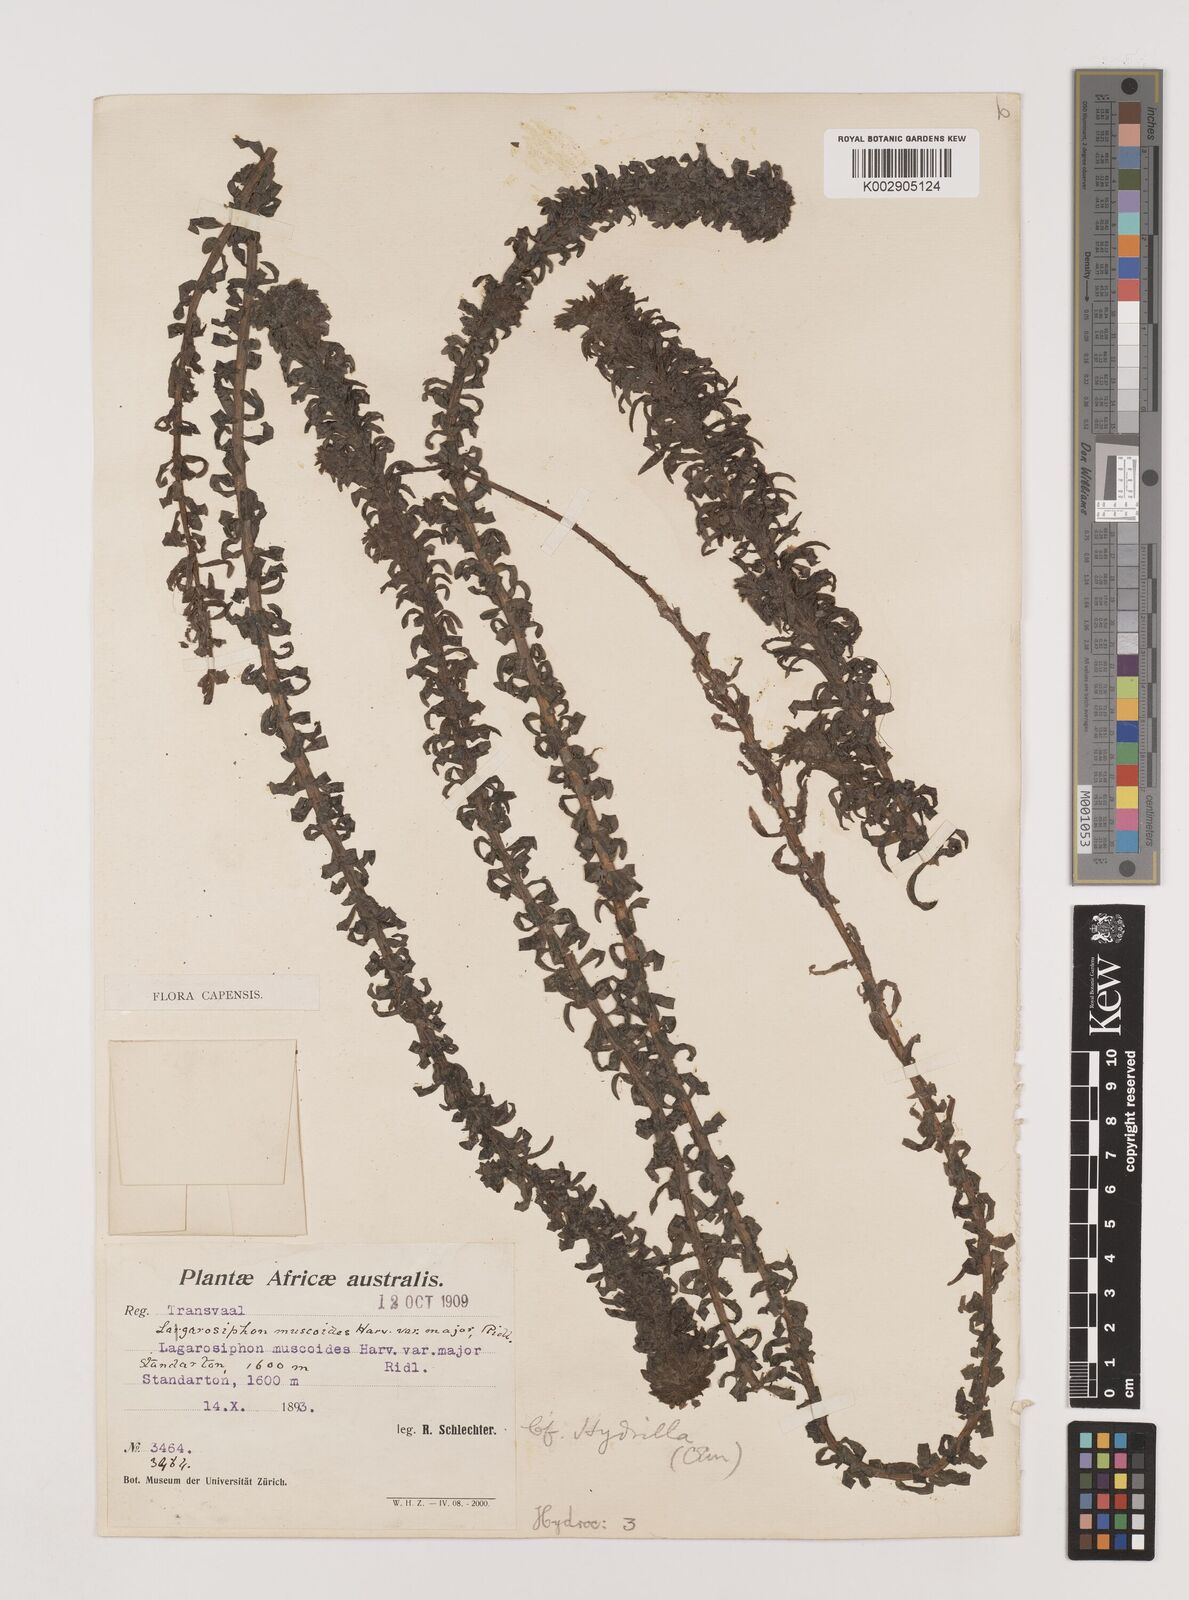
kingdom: Plantae
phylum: Tracheophyta
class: Liliopsida
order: Alismatales
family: Hydrocharitaceae
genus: Lagarosiphon
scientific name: Lagarosiphon major
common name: Curly waterweed
